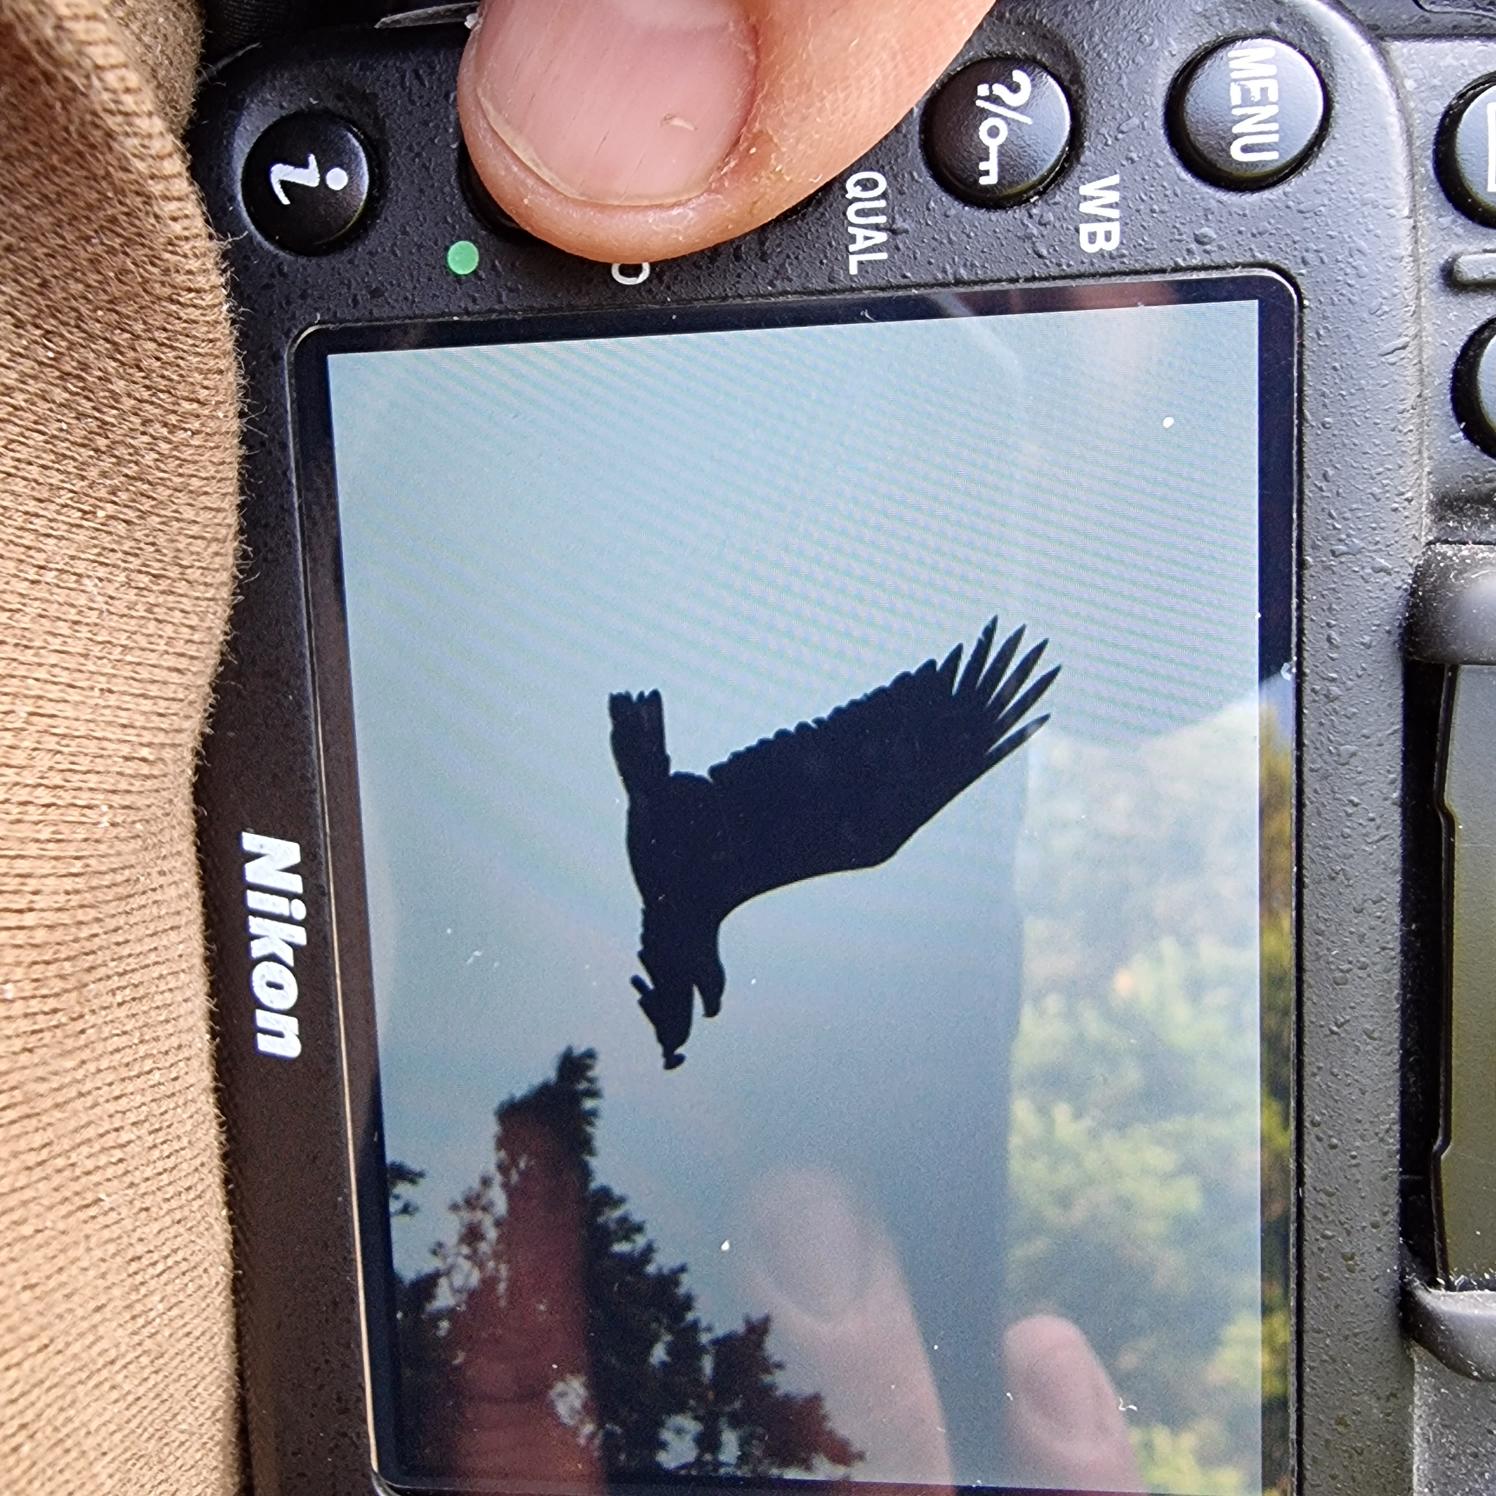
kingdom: Animalia
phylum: Chordata
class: Aves
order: Accipitriformes
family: Accipitridae
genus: Haliaeetus
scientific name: Haliaeetus albicilla
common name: Havørn
